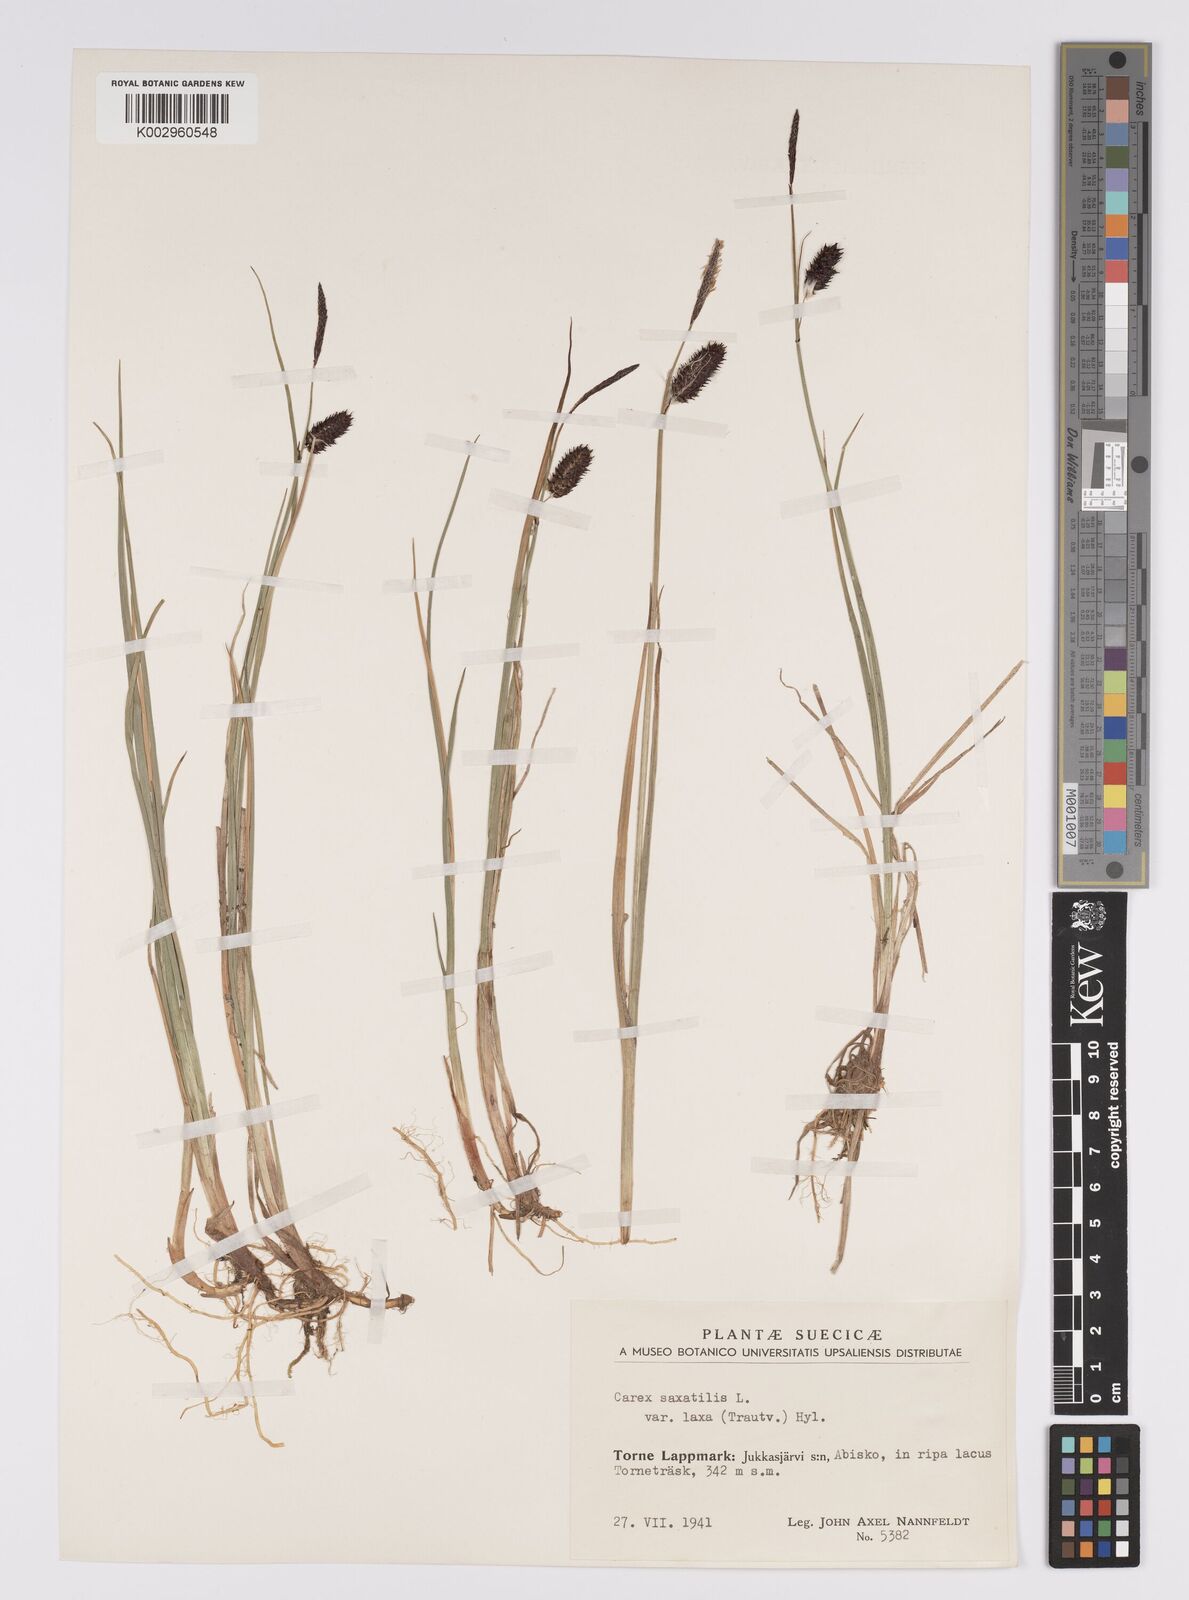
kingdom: Plantae
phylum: Tracheophyta
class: Liliopsida
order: Poales
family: Cyperaceae
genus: Carex
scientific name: Carex saxatilis
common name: Russet sedge
